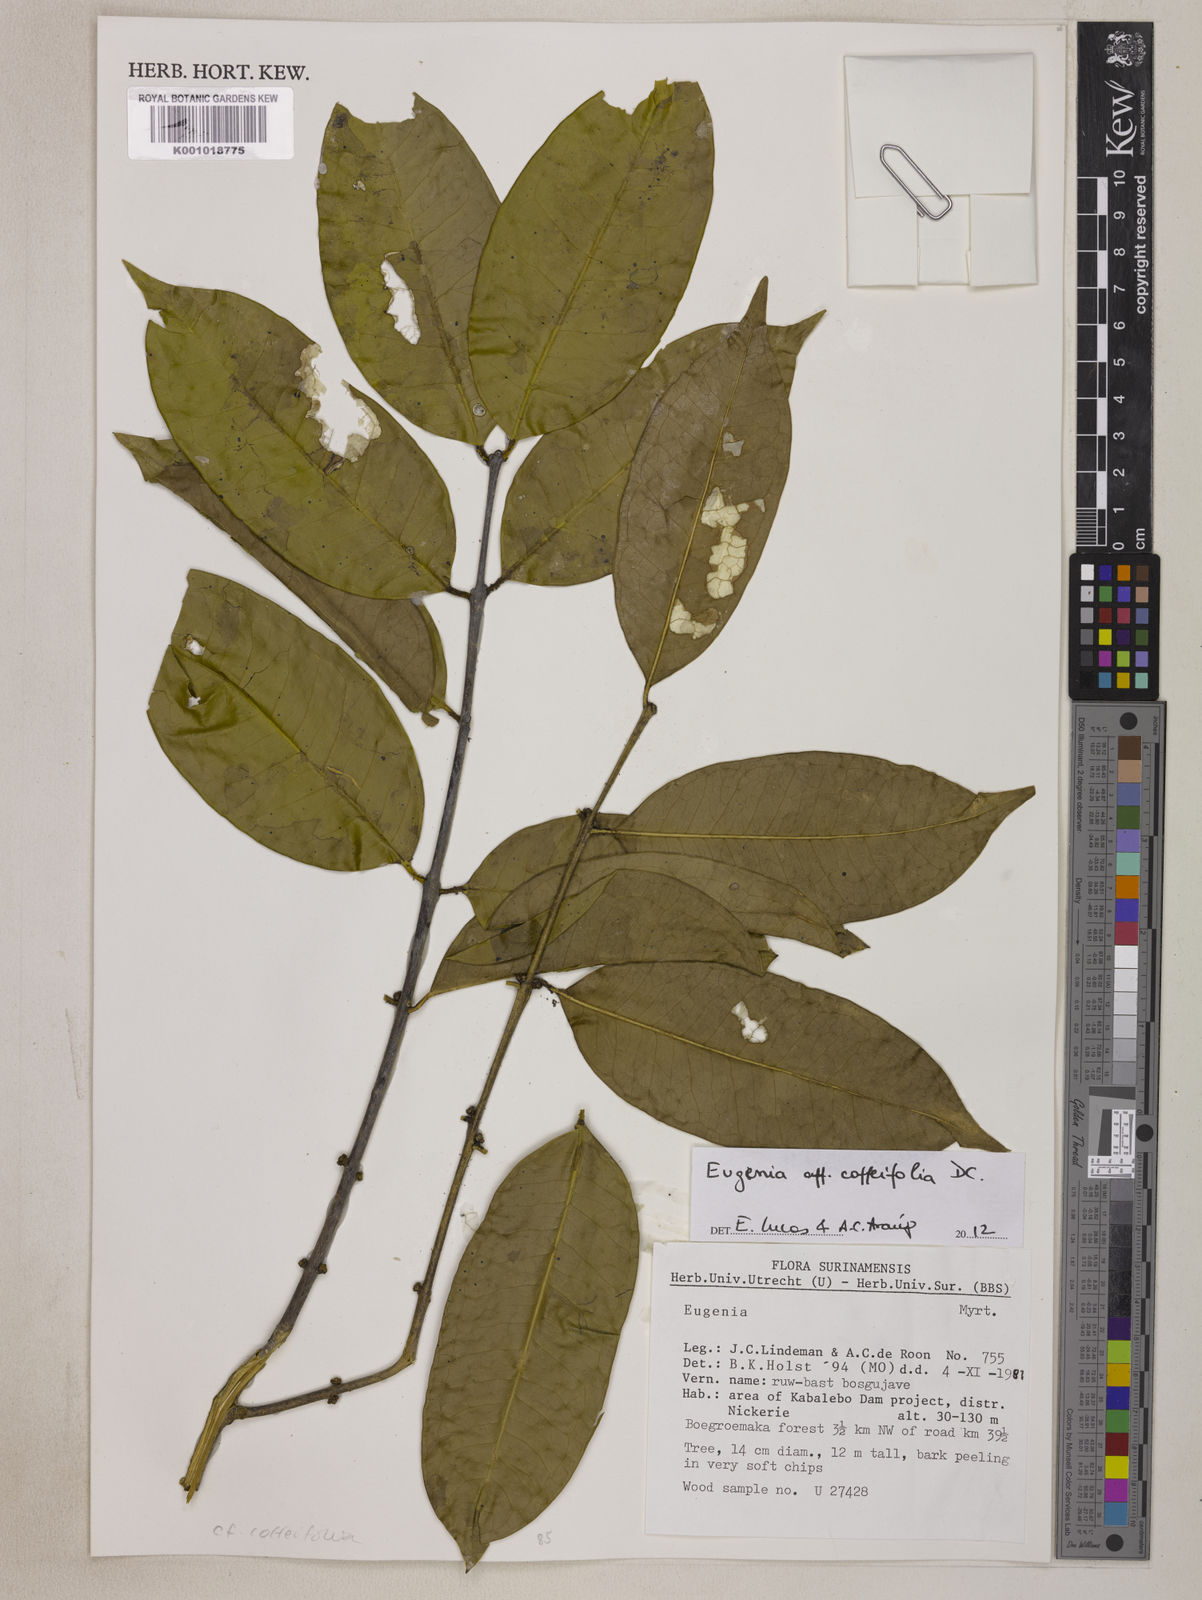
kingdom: Plantae
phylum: Tracheophyta
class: Magnoliopsida
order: Myrtales
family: Myrtaceae
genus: Eugenia
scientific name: Eugenia coffeifolia
